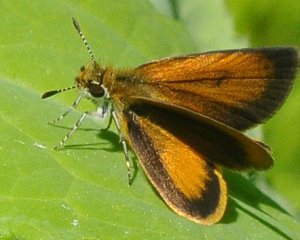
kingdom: Animalia
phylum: Arthropoda
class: Insecta
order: Lepidoptera
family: Hesperiidae
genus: Ancyloxypha
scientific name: Ancyloxypha numitor
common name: Least Skipper
